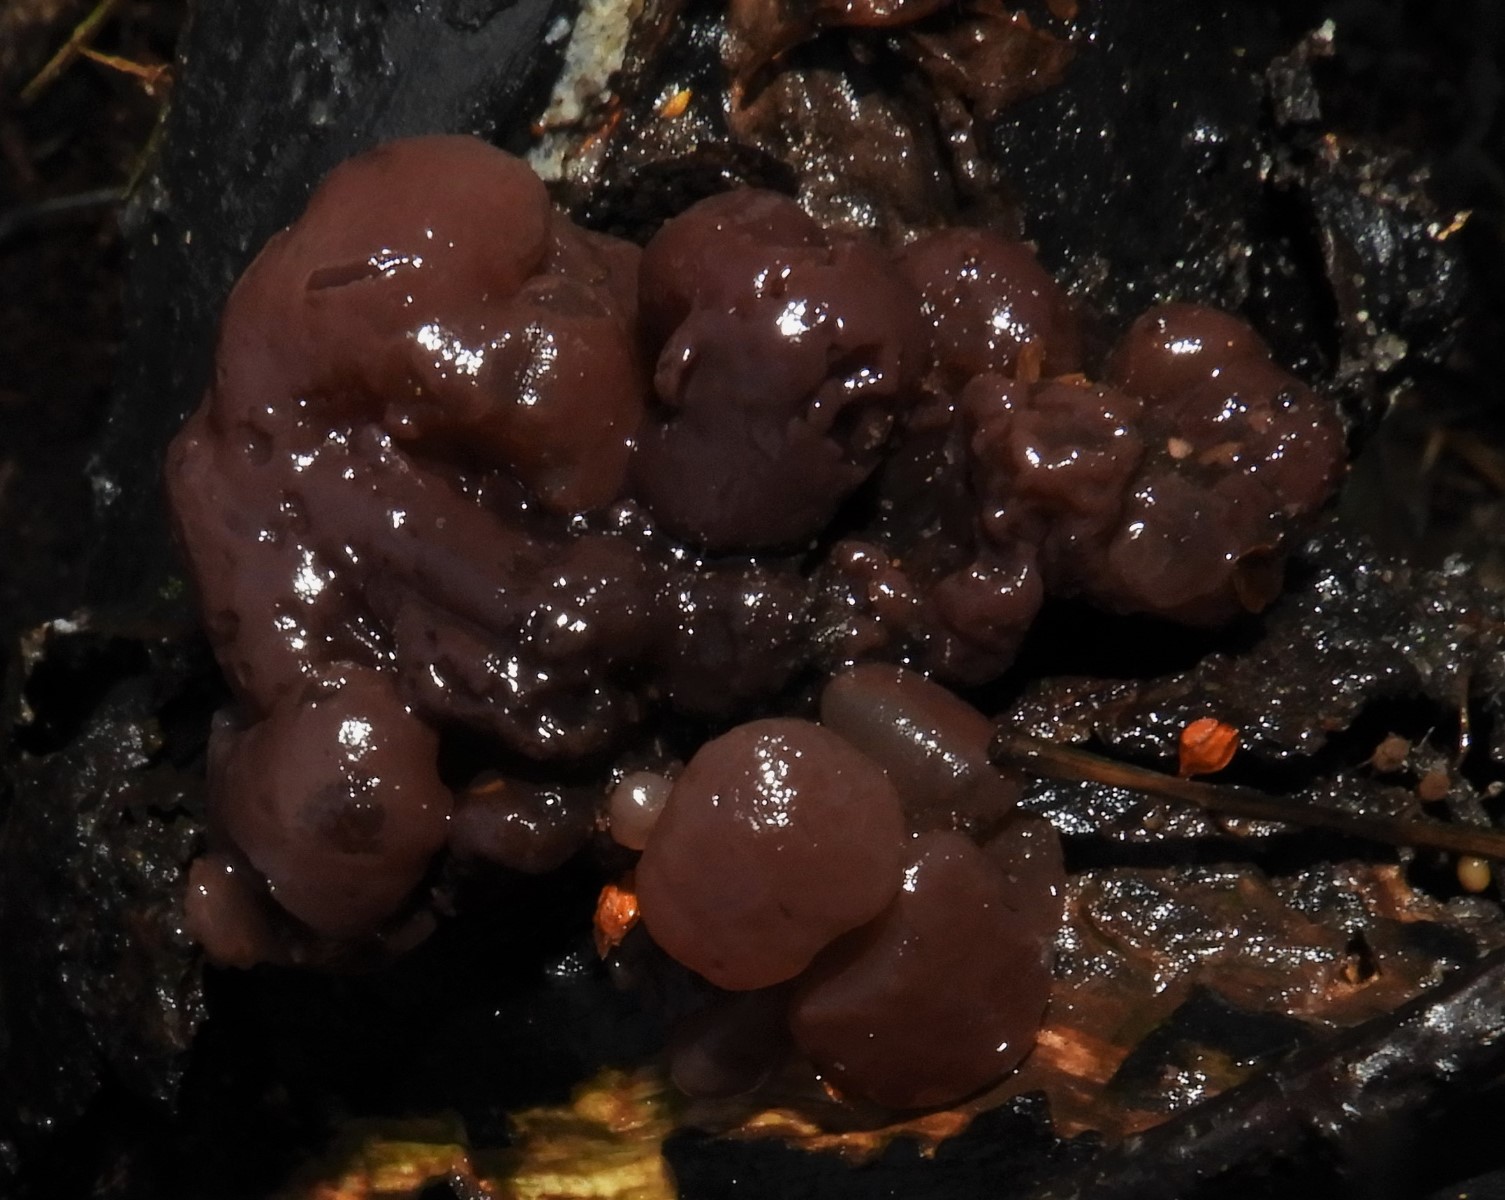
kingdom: Fungi
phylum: Ascomycota
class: Leotiomycetes
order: Helotiales
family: Gelatinodiscaceae
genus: Ascotremella
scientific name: Ascotremella faginea
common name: hjerne-bævreskive
